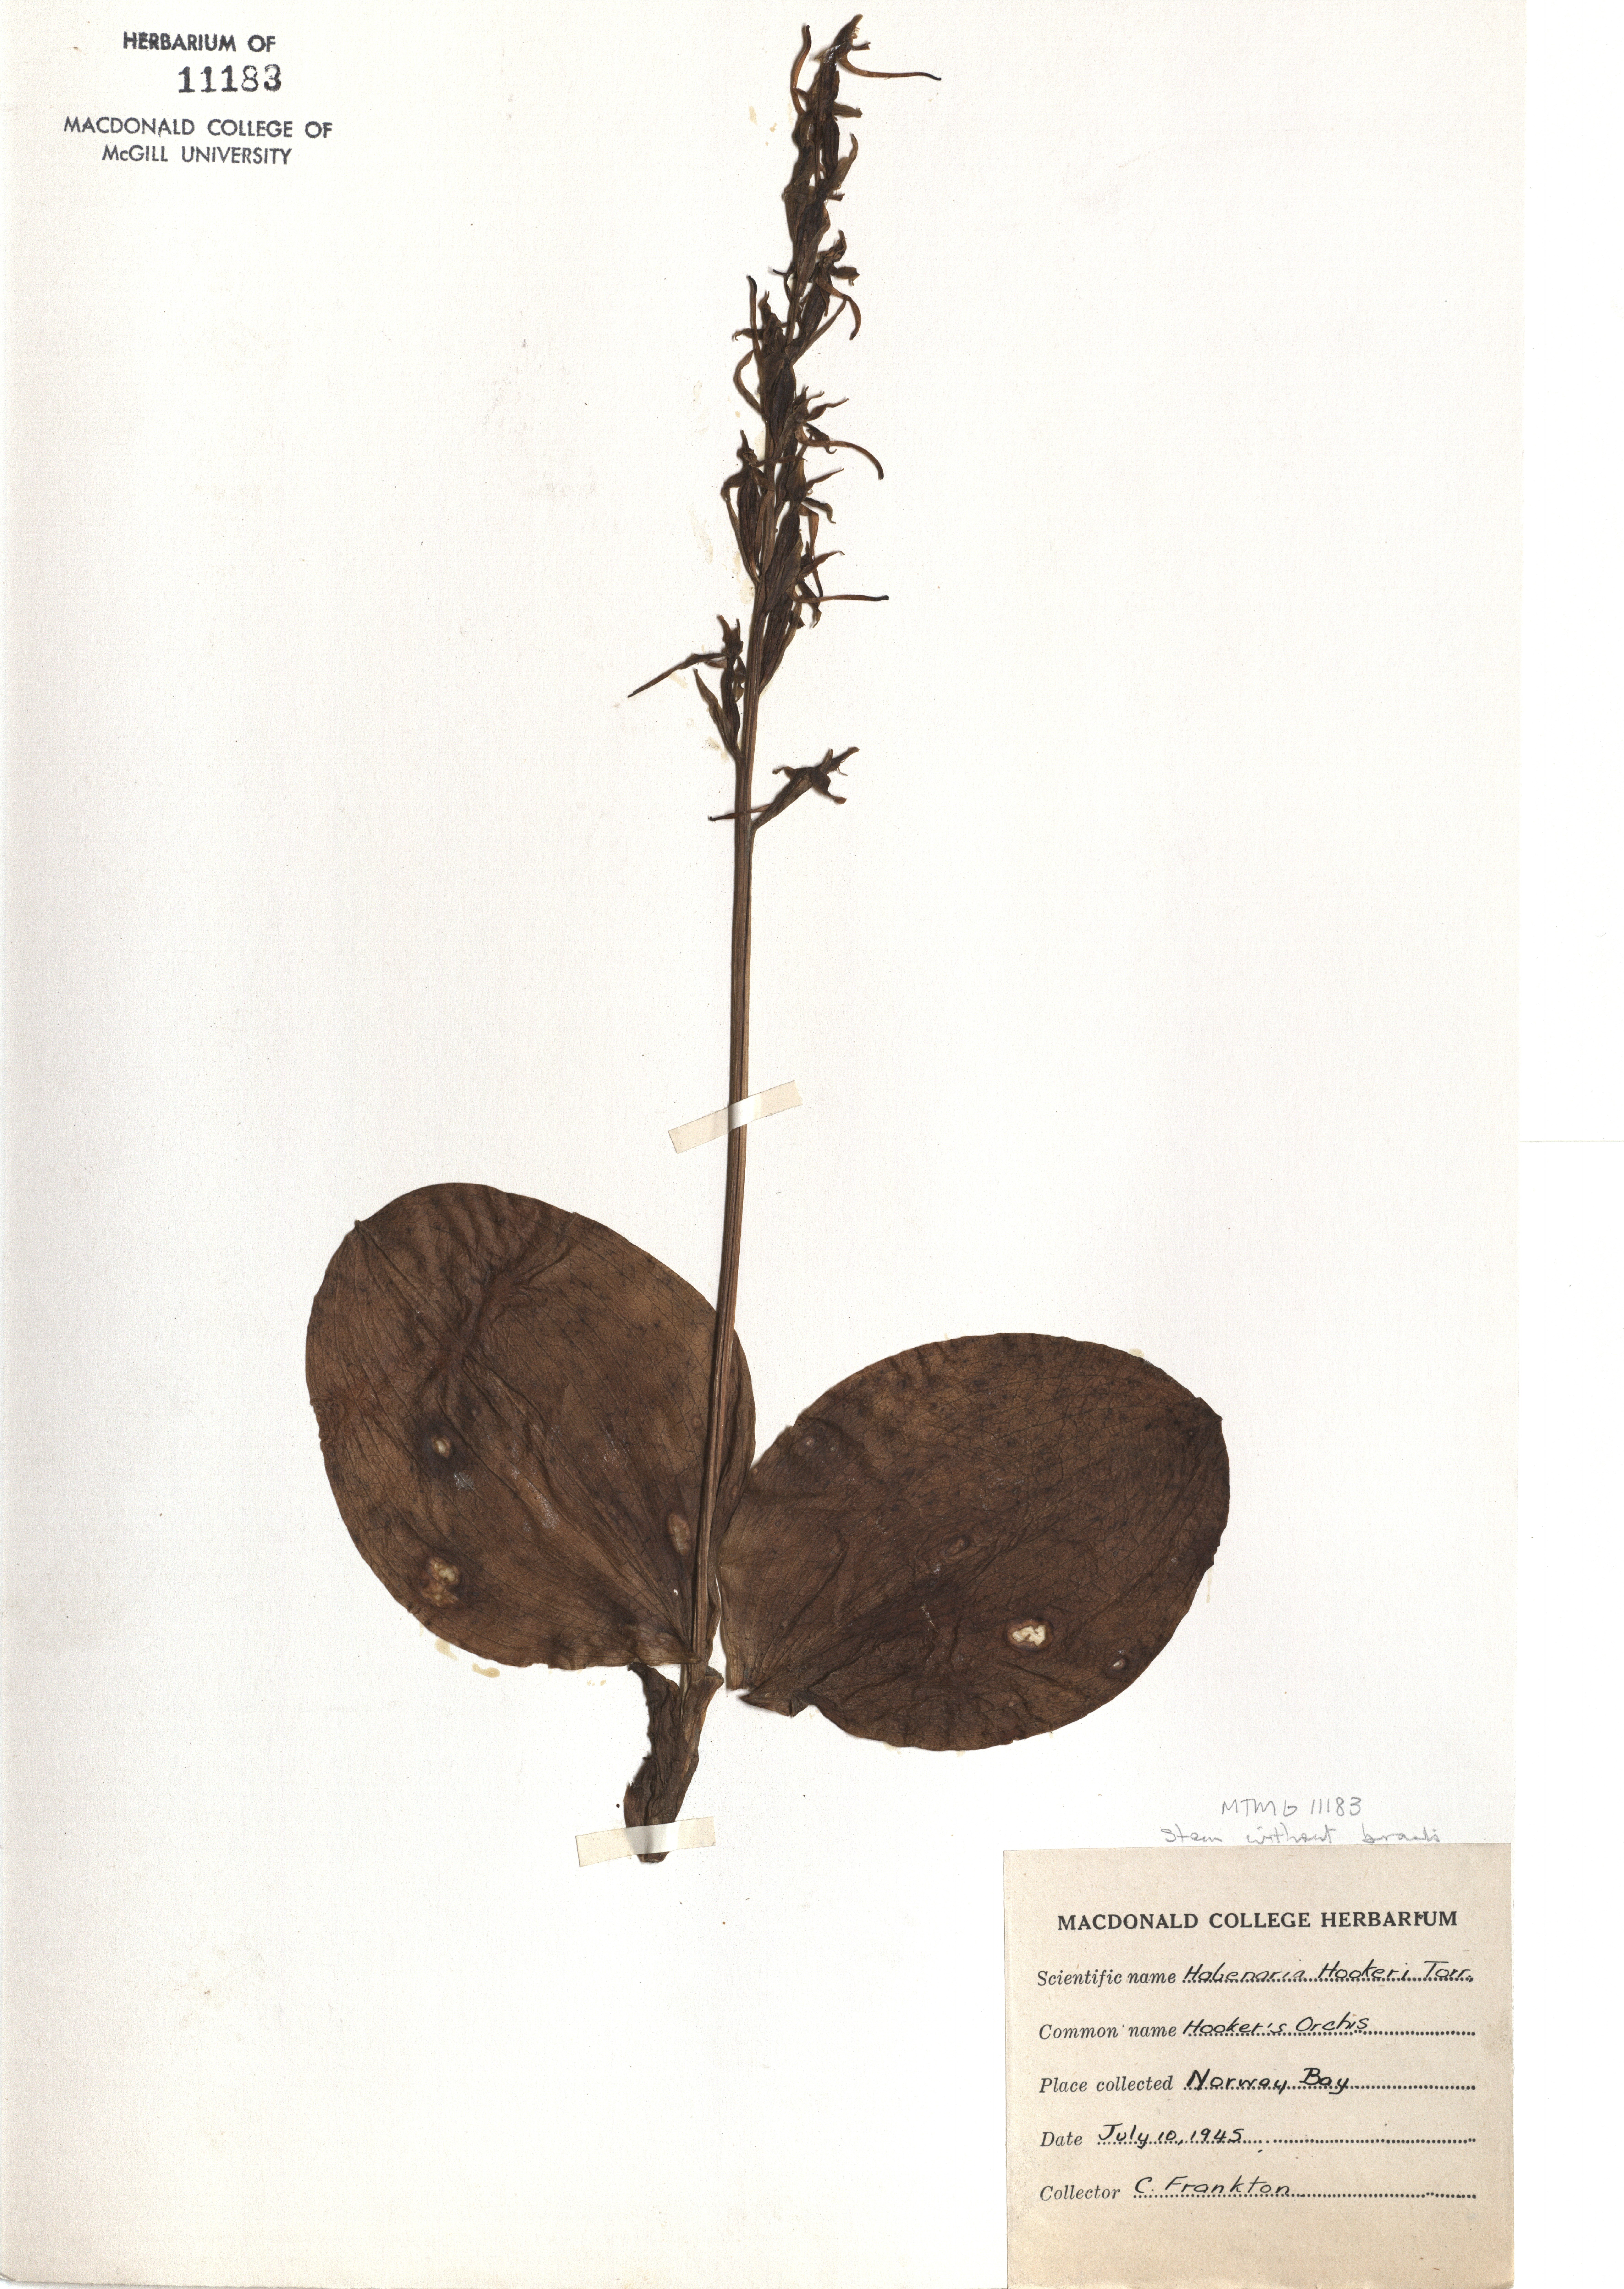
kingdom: Plantae
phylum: Tracheophyta
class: Liliopsida
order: Asparagales
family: Orchidaceae
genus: Platanthera
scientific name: Platanthera hookeri
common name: Hooker's orchid
